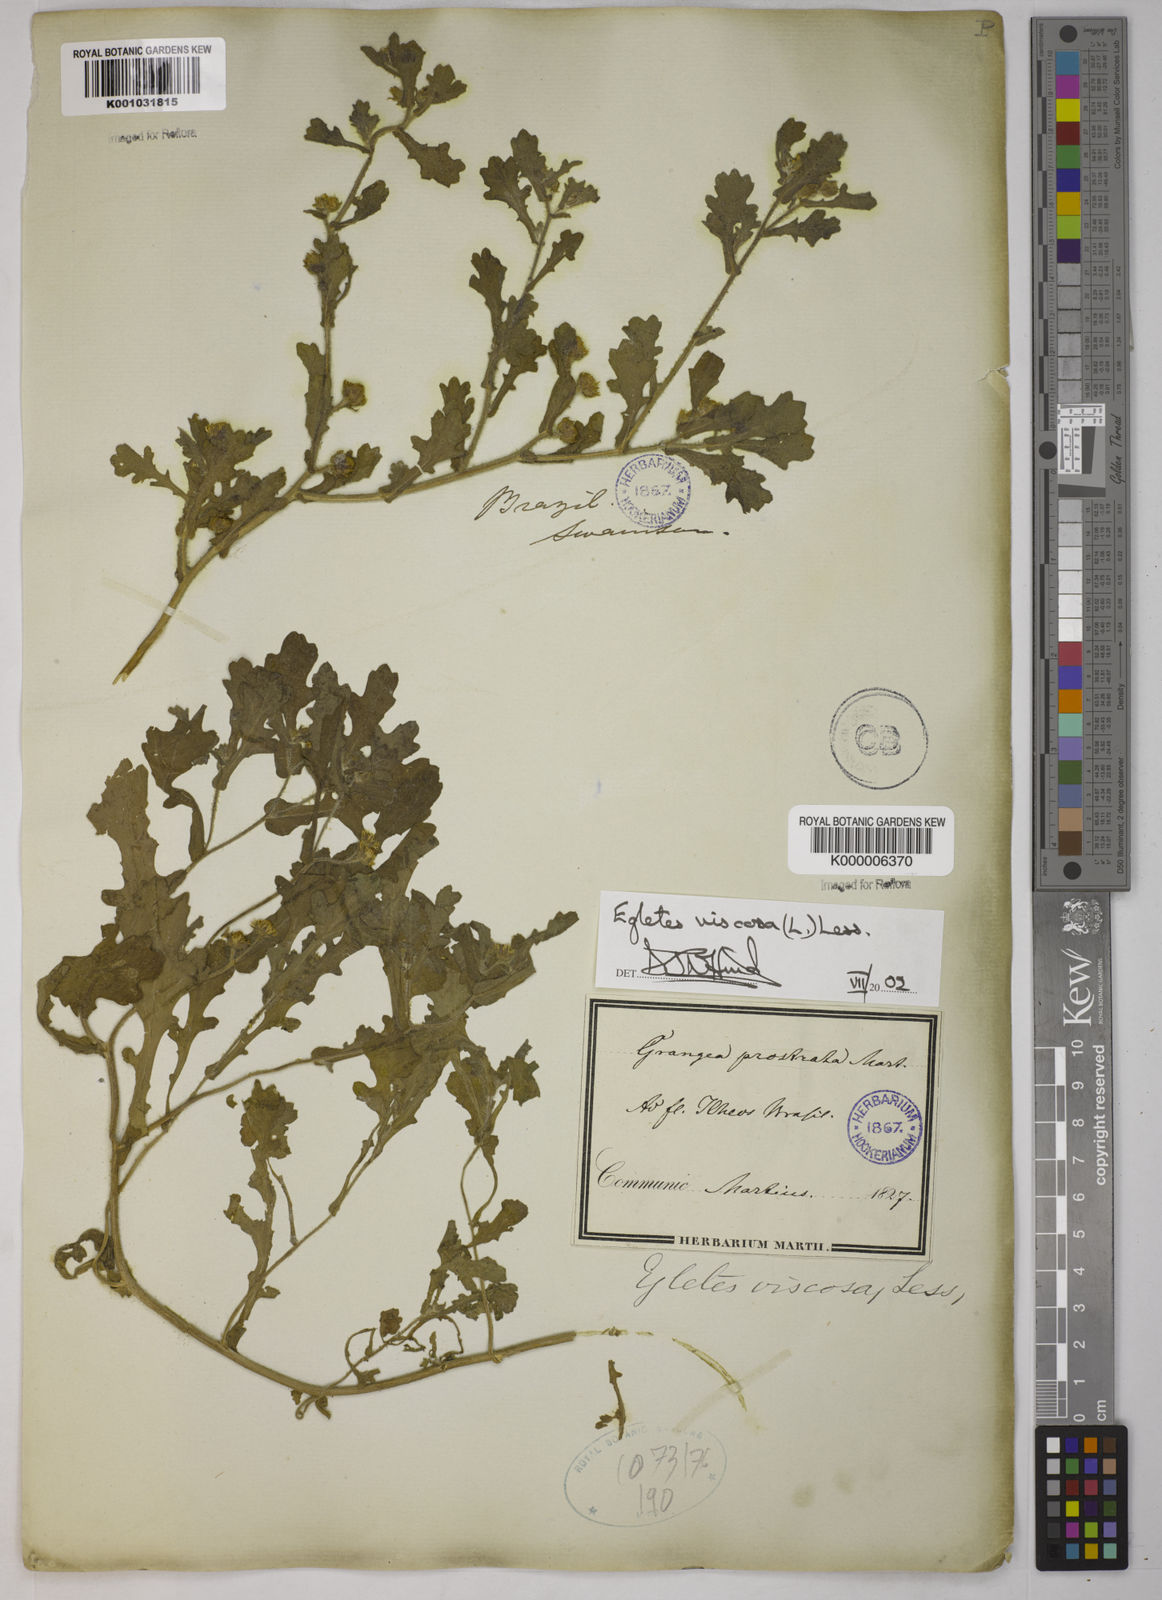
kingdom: Plantae
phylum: Tracheophyta
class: Magnoliopsida
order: Asterales
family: Asteraceae
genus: Egletes
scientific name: Egletes viscosa
